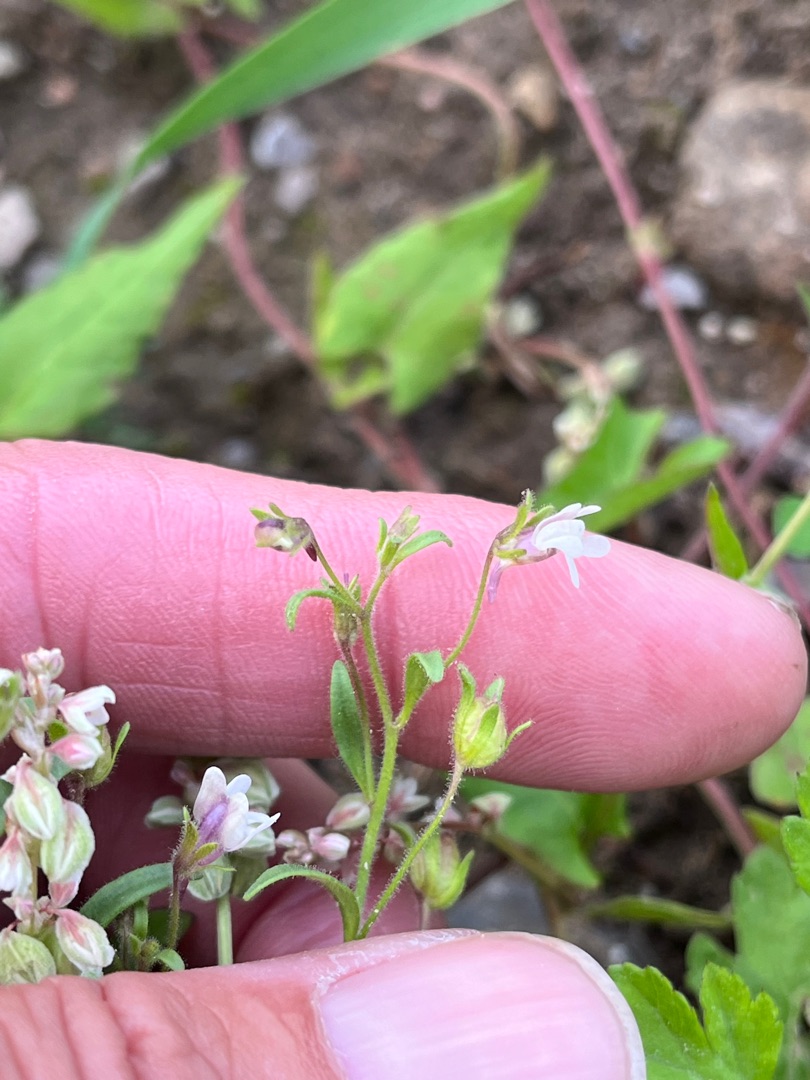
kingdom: Plantae
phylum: Tracheophyta
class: Magnoliopsida
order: Lamiales
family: Plantaginaceae
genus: Chaenorhinum
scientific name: Chaenorhinum minus
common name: Liden torskemund
